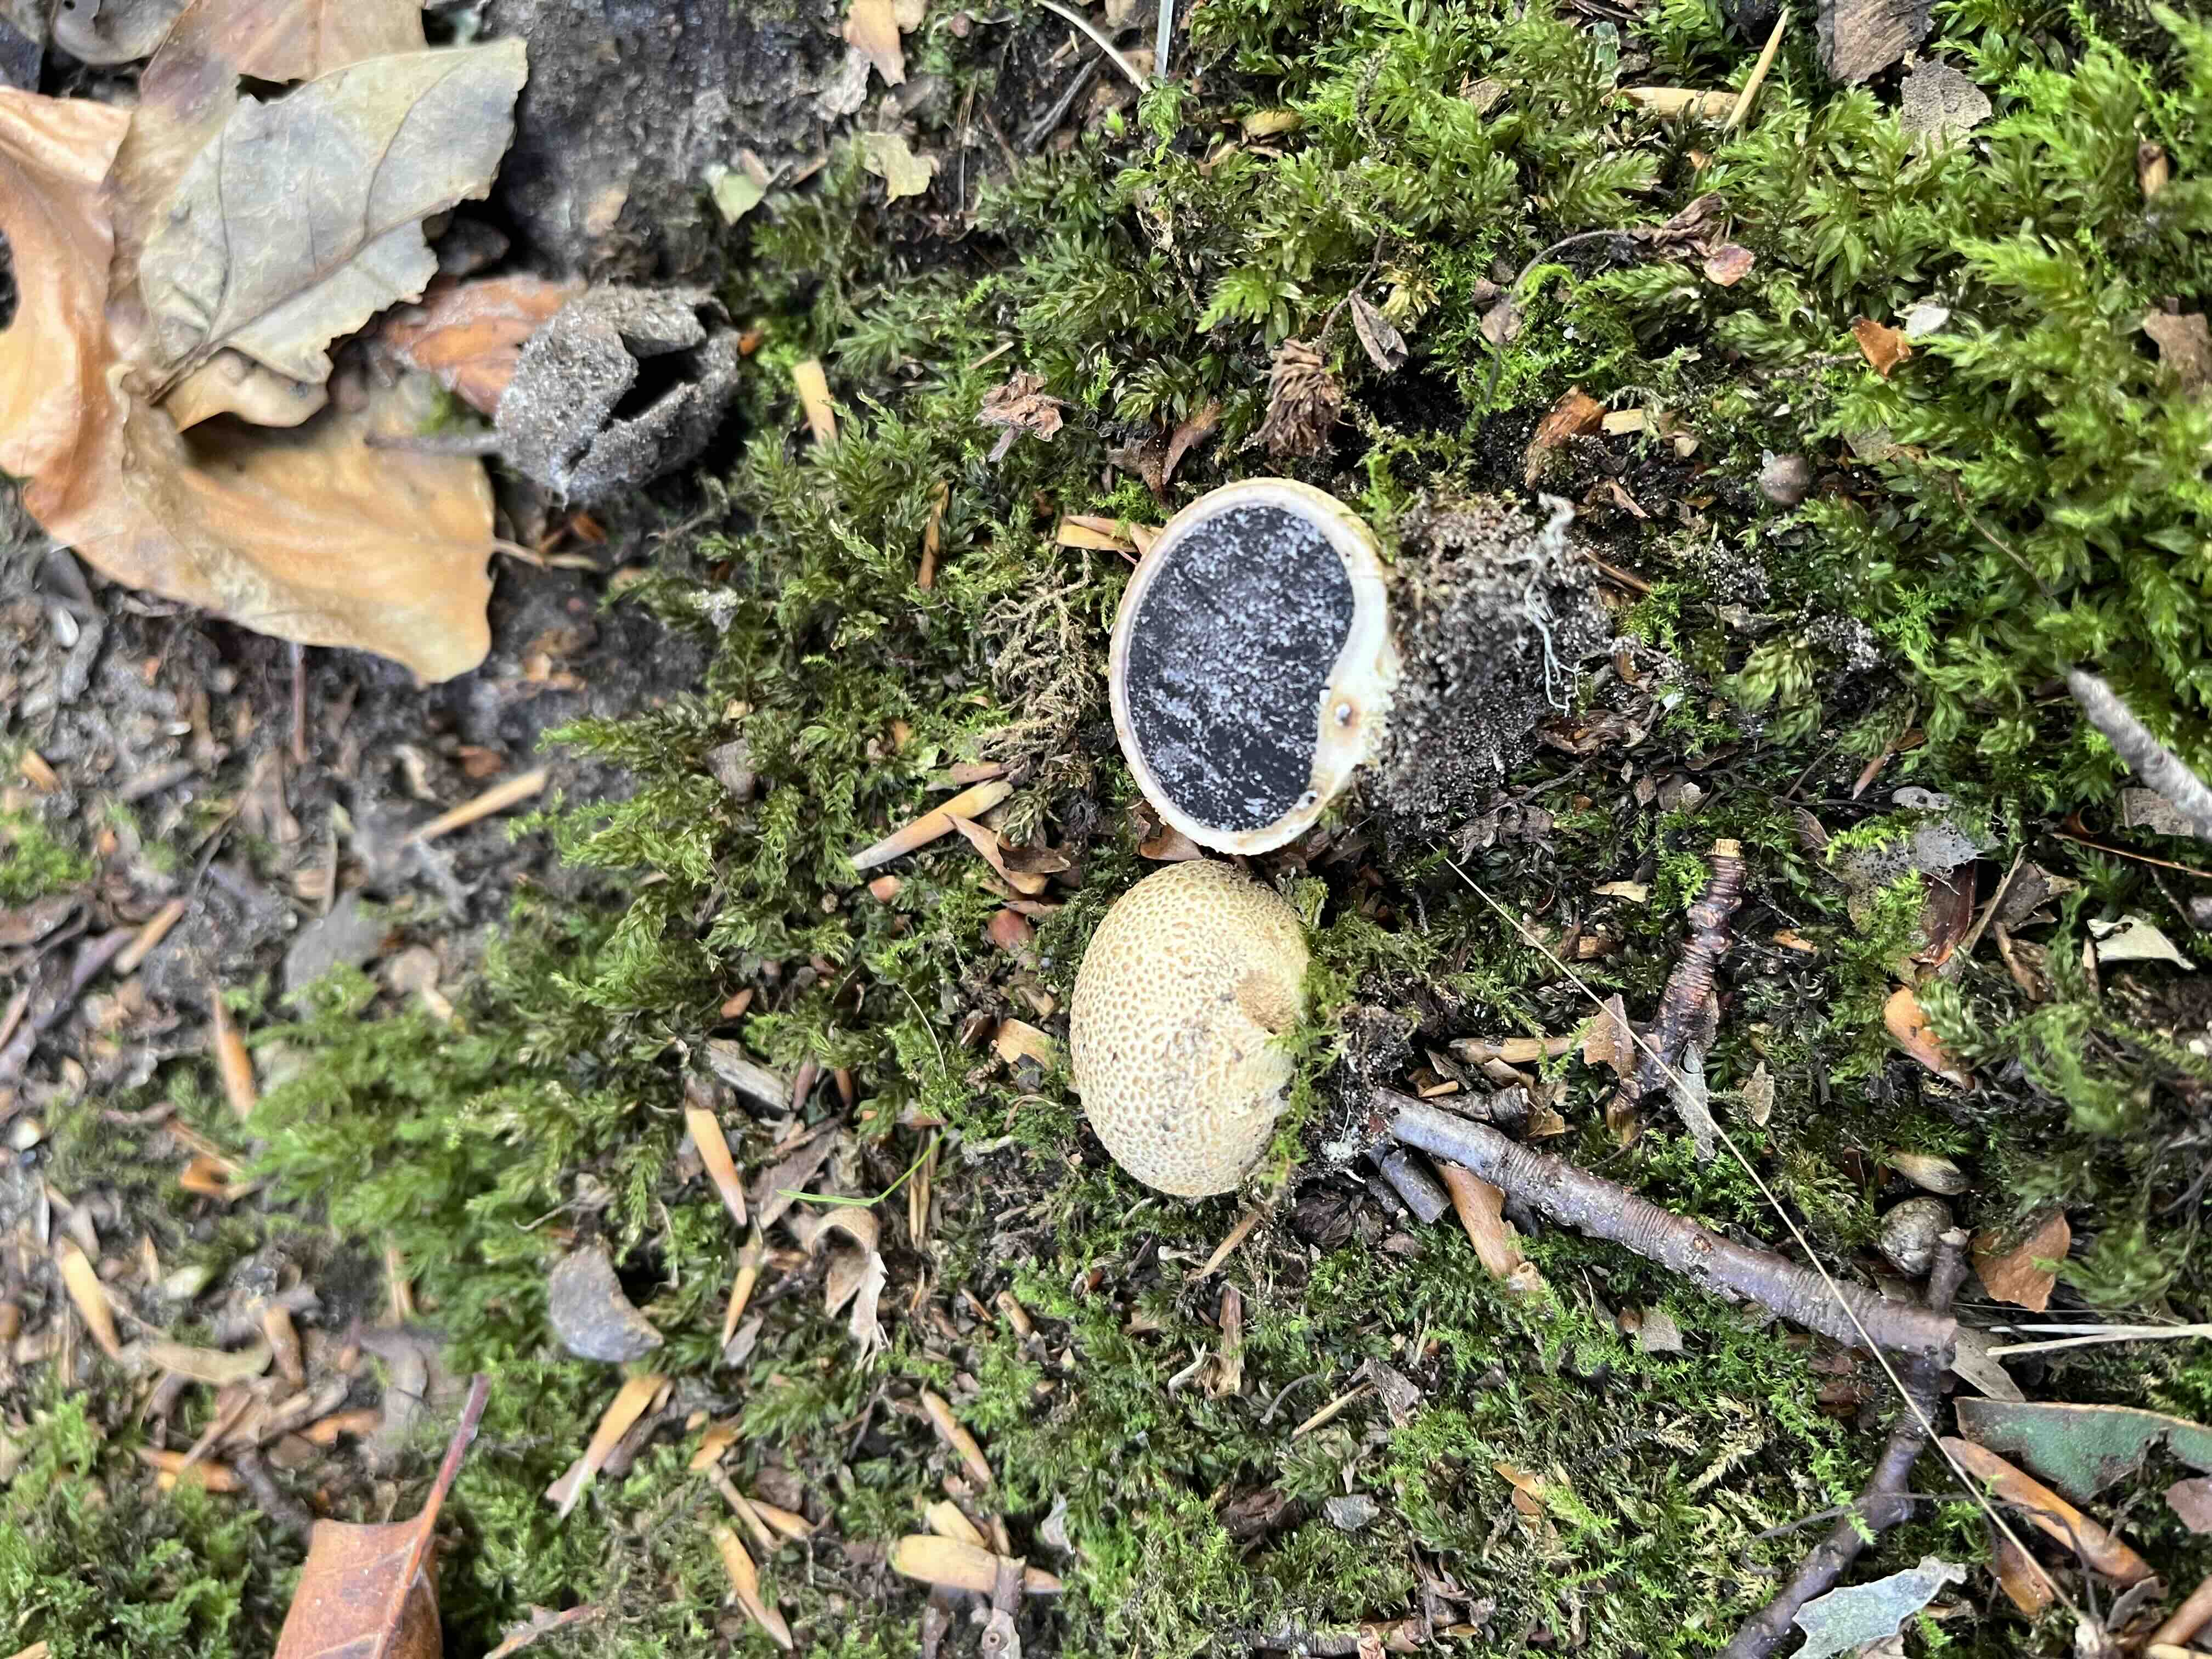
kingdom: Fungi
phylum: Basidiomycota
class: Agaricomycetes
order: Boletales
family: Sclerodermataceae
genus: Scleroderma
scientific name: Scleroderma citrinum
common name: almindelig bruskbold
